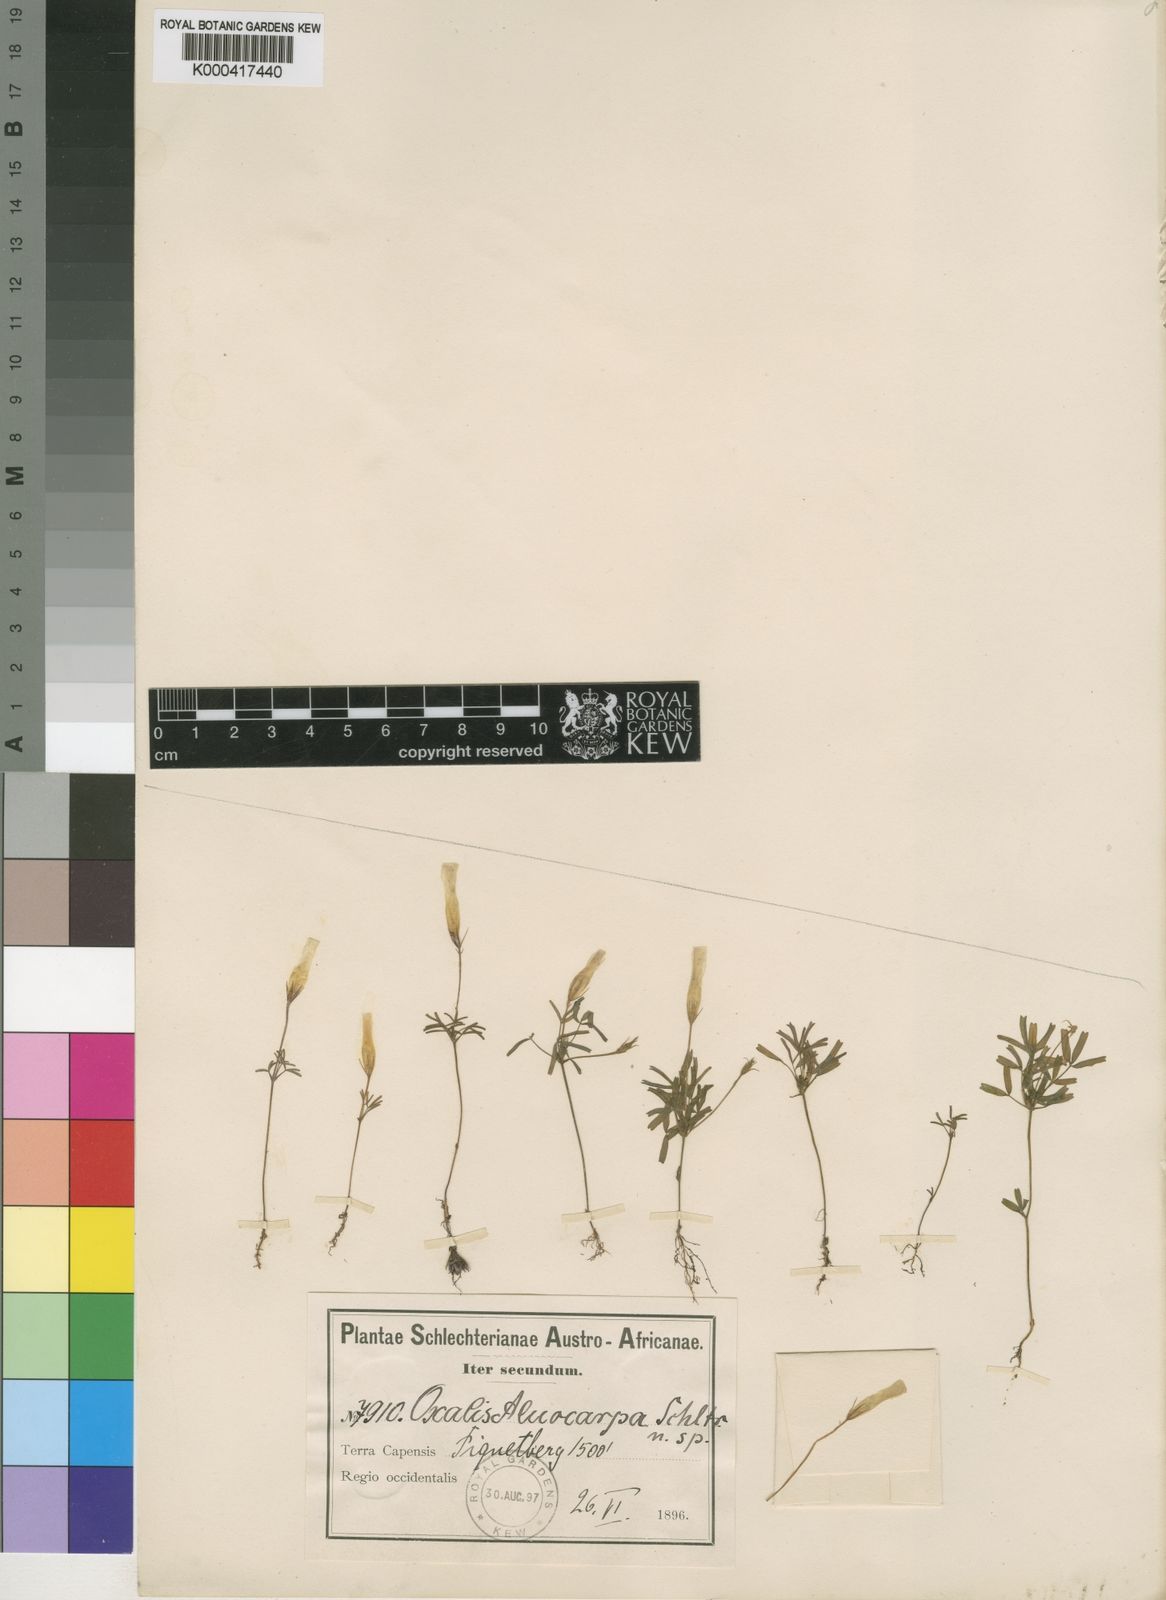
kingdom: Plantae
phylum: Tracheophyta
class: Magnoliopsida
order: Oxalidales
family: Oxalidaceae
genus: Oxalis
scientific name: Oxalis glabra
